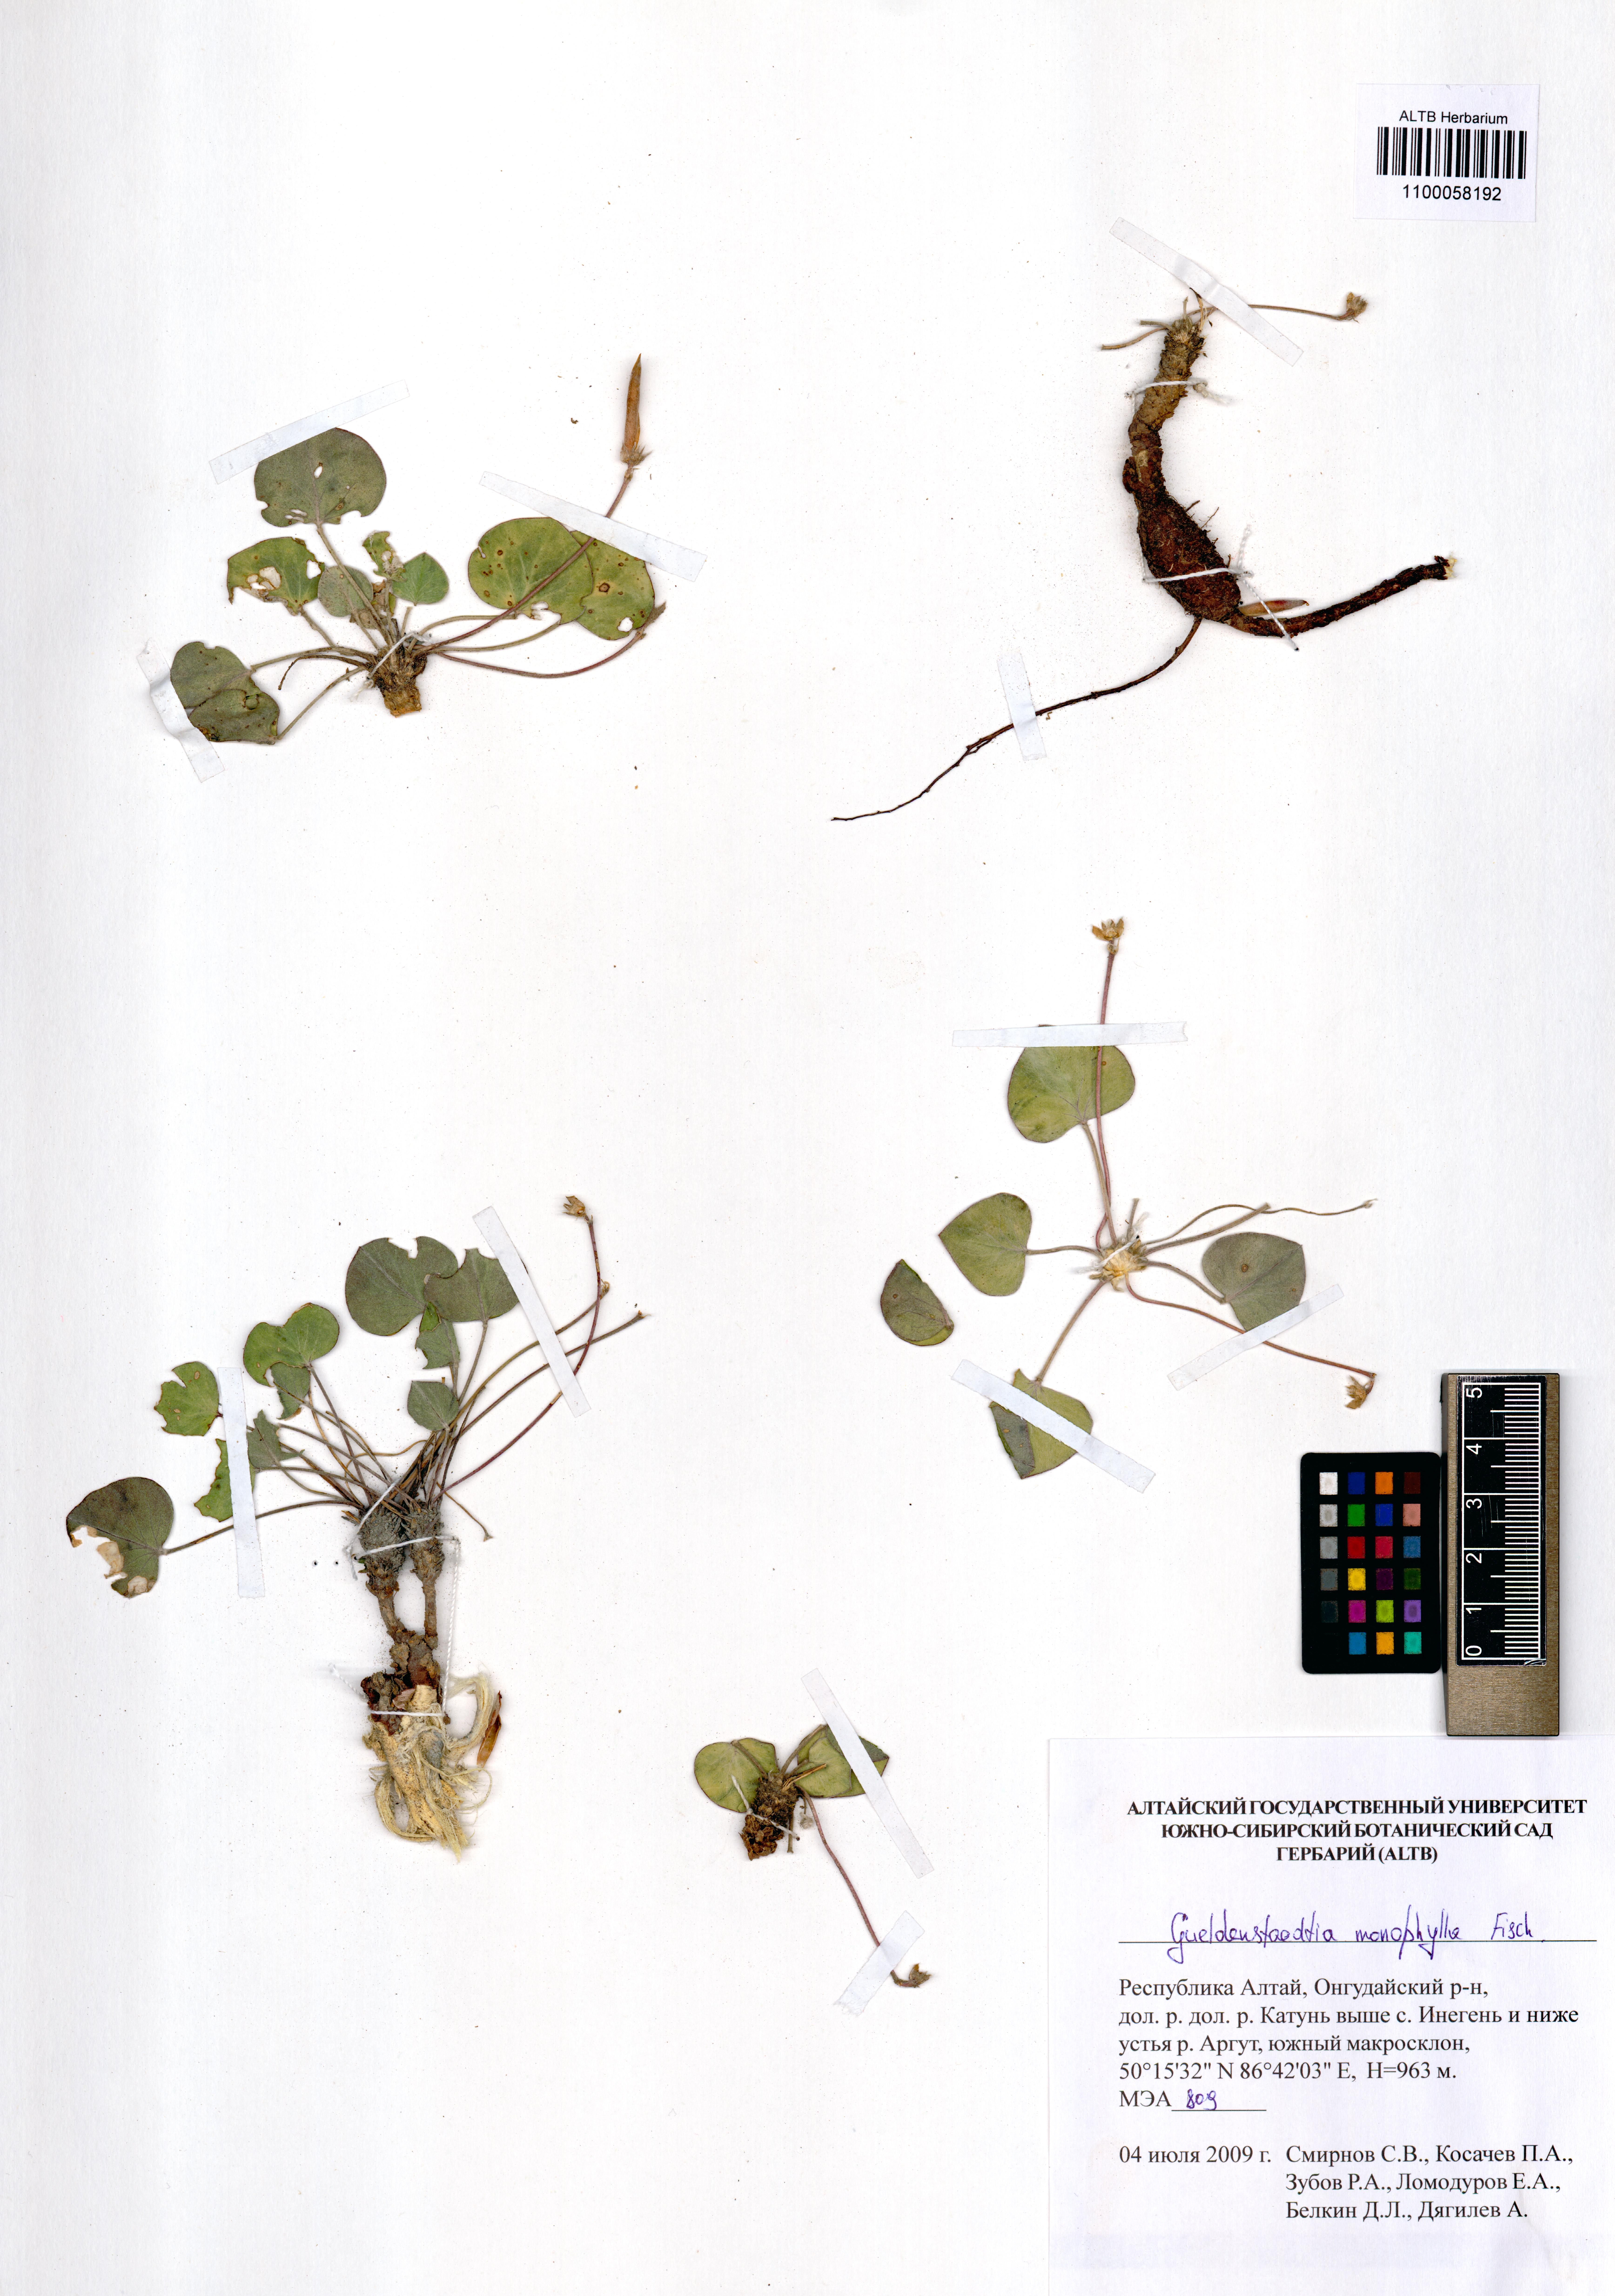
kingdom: Plantae
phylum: Tracheophyta
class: Magnoliopsida
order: Fabales
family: Fabaceae
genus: Gueldenstaedtia
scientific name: Gueldenstaedtia monophylla
